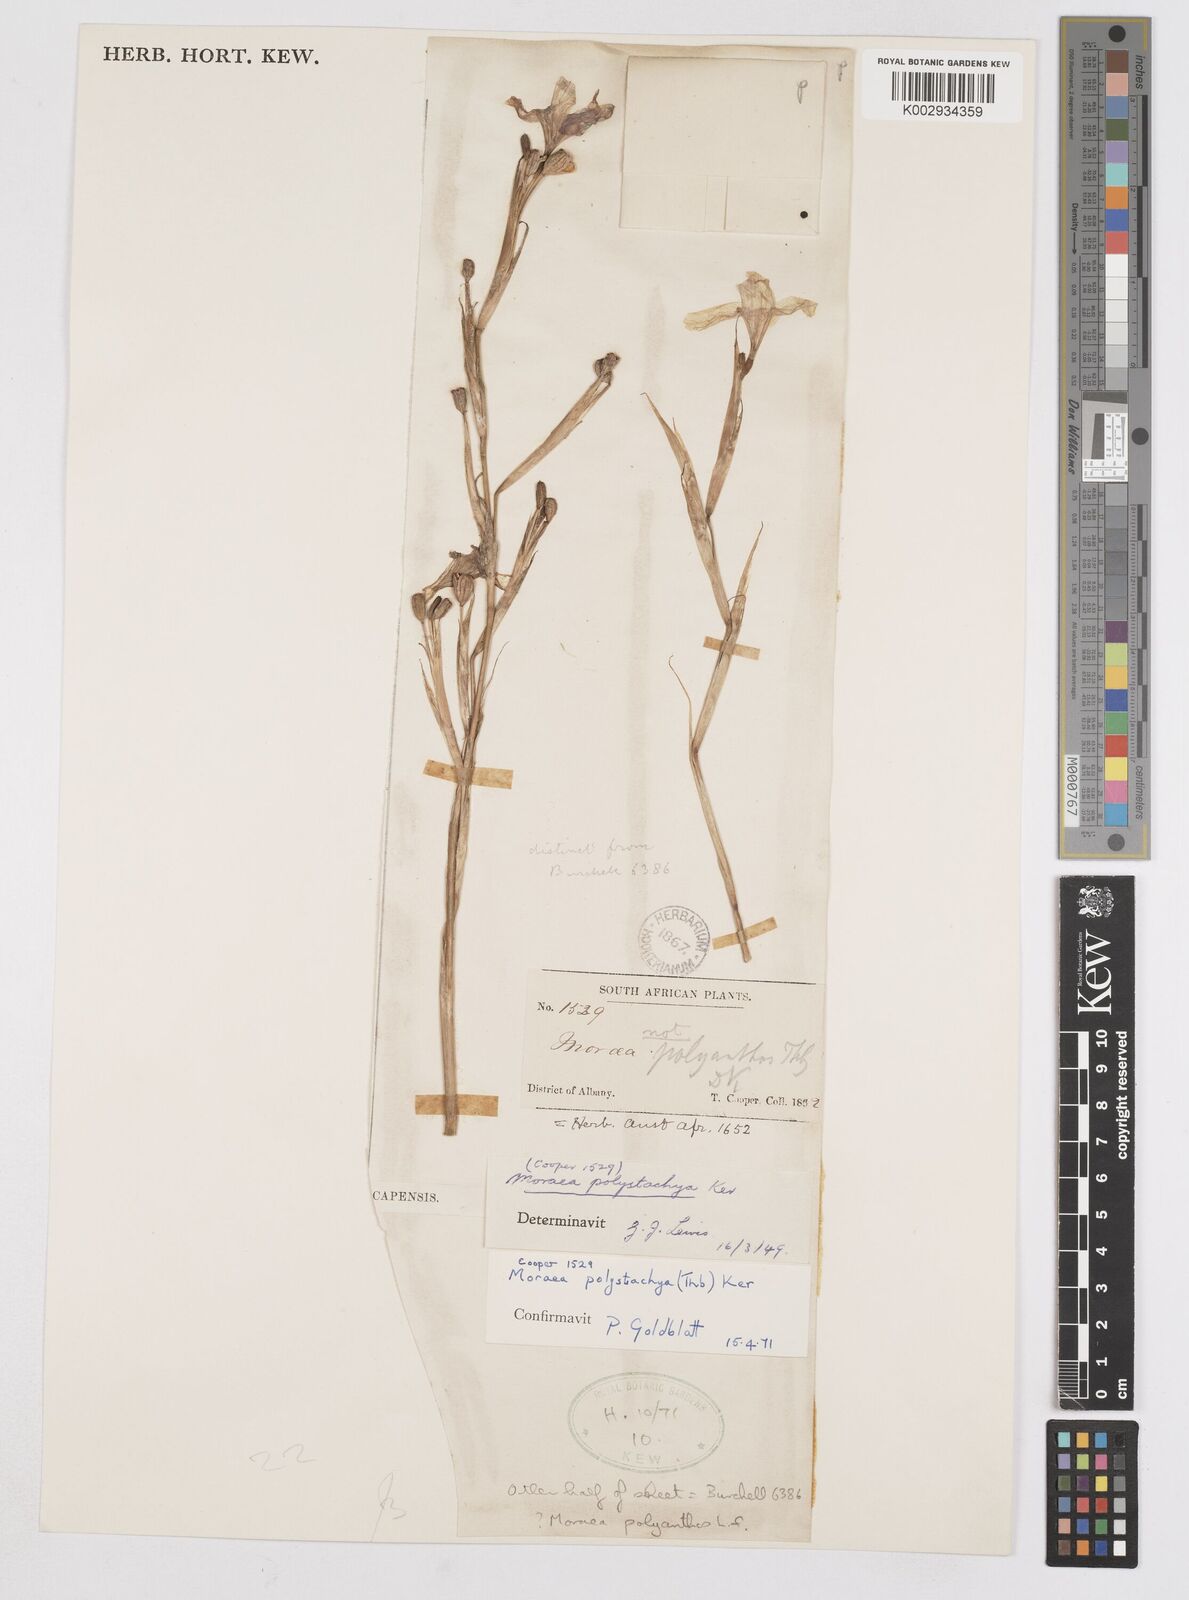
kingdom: Plantae
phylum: Tracheophyta
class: Liliopsida
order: Asparagales
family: Iridaceae
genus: Moraea
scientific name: Moraea polystachya
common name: Blue-tulip
